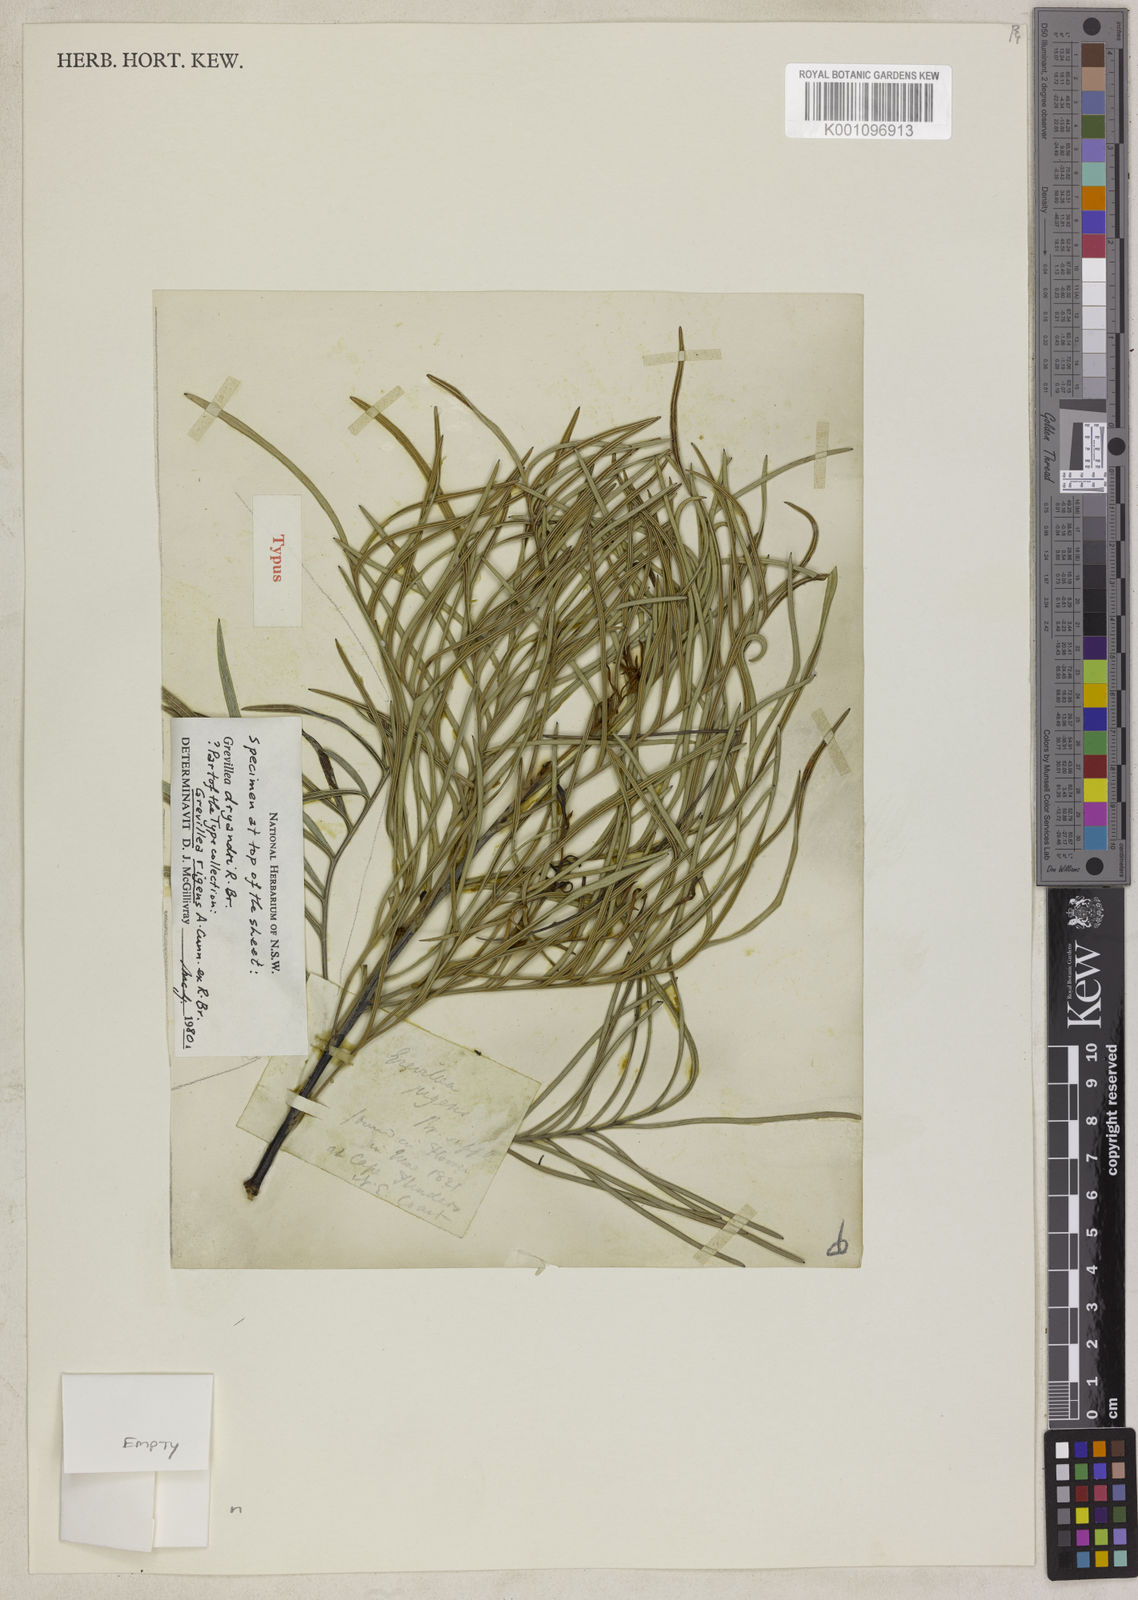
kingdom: Plantae
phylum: Tracheophyta
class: Magnoliopsida
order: Proteales
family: Proteaceae
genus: Grevillea
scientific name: Grevillea dryandri
